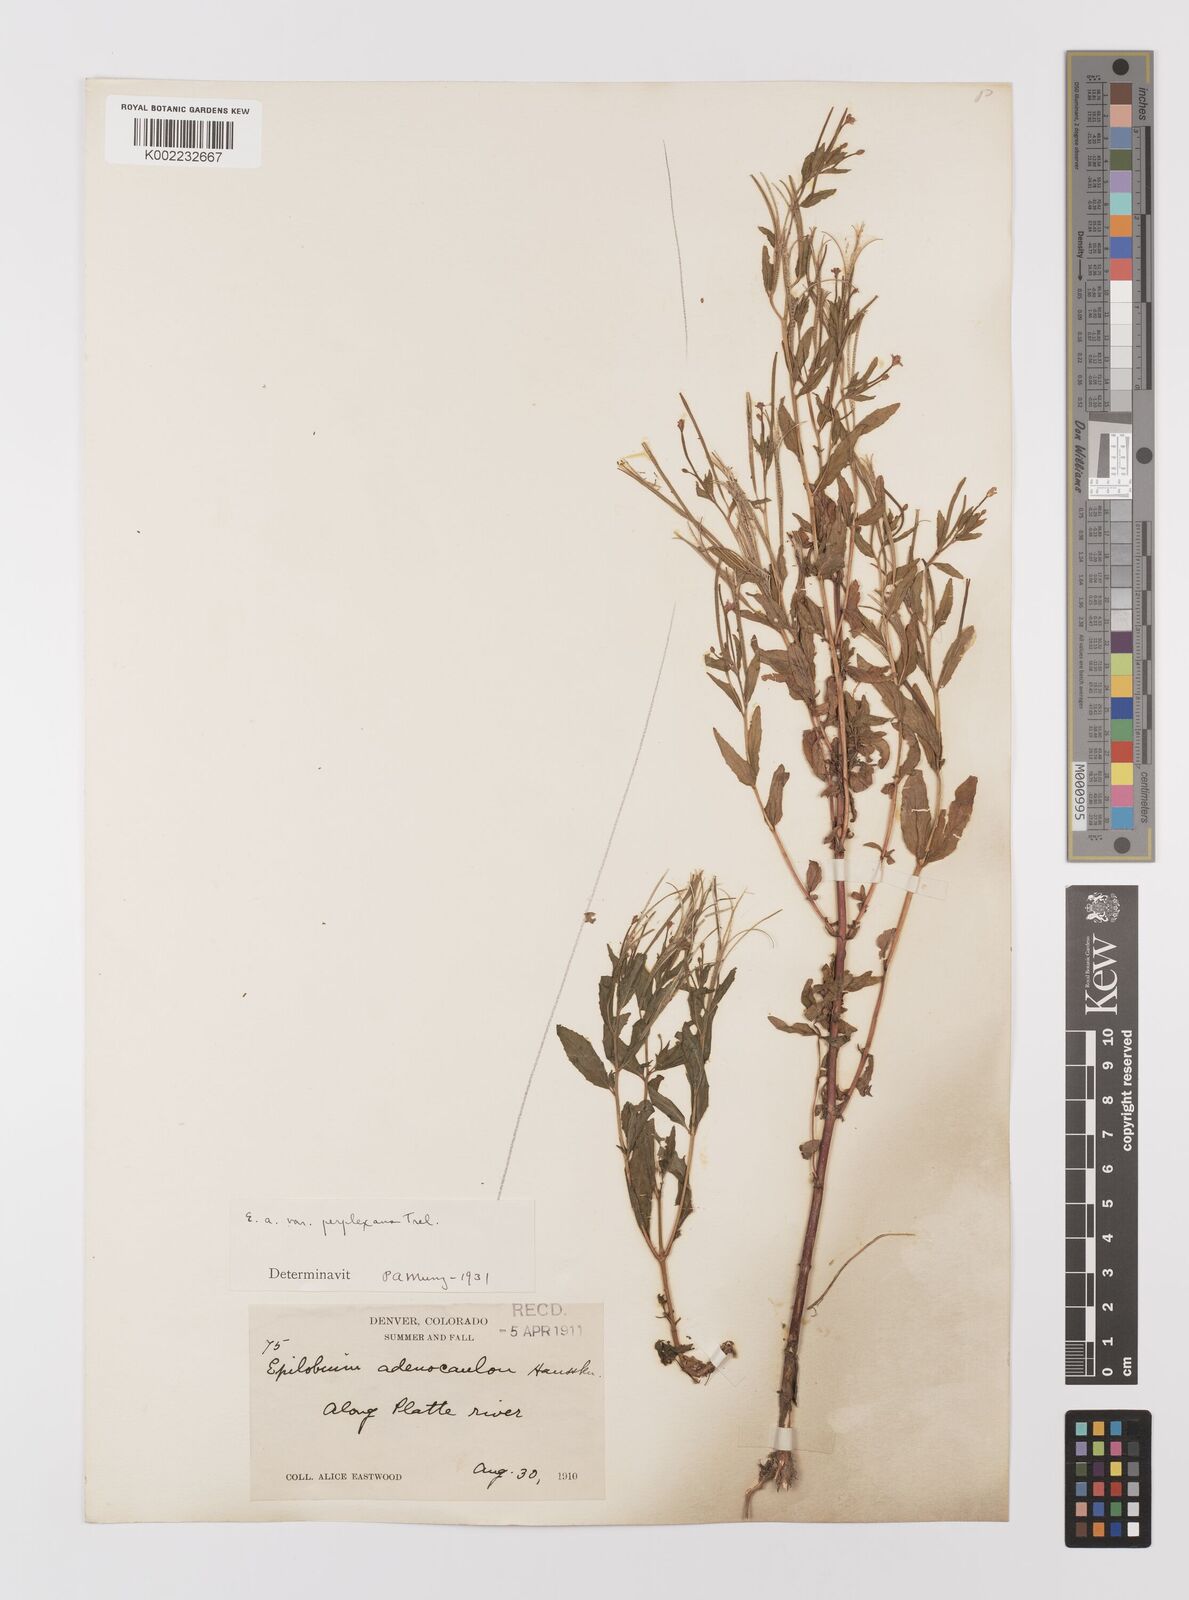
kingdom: Plantae
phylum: Tracheophyta
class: Magnoliopsida
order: Myrtales
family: Onagraceae
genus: Epilobium
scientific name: Epilobium ciliatum
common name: American willowherb
